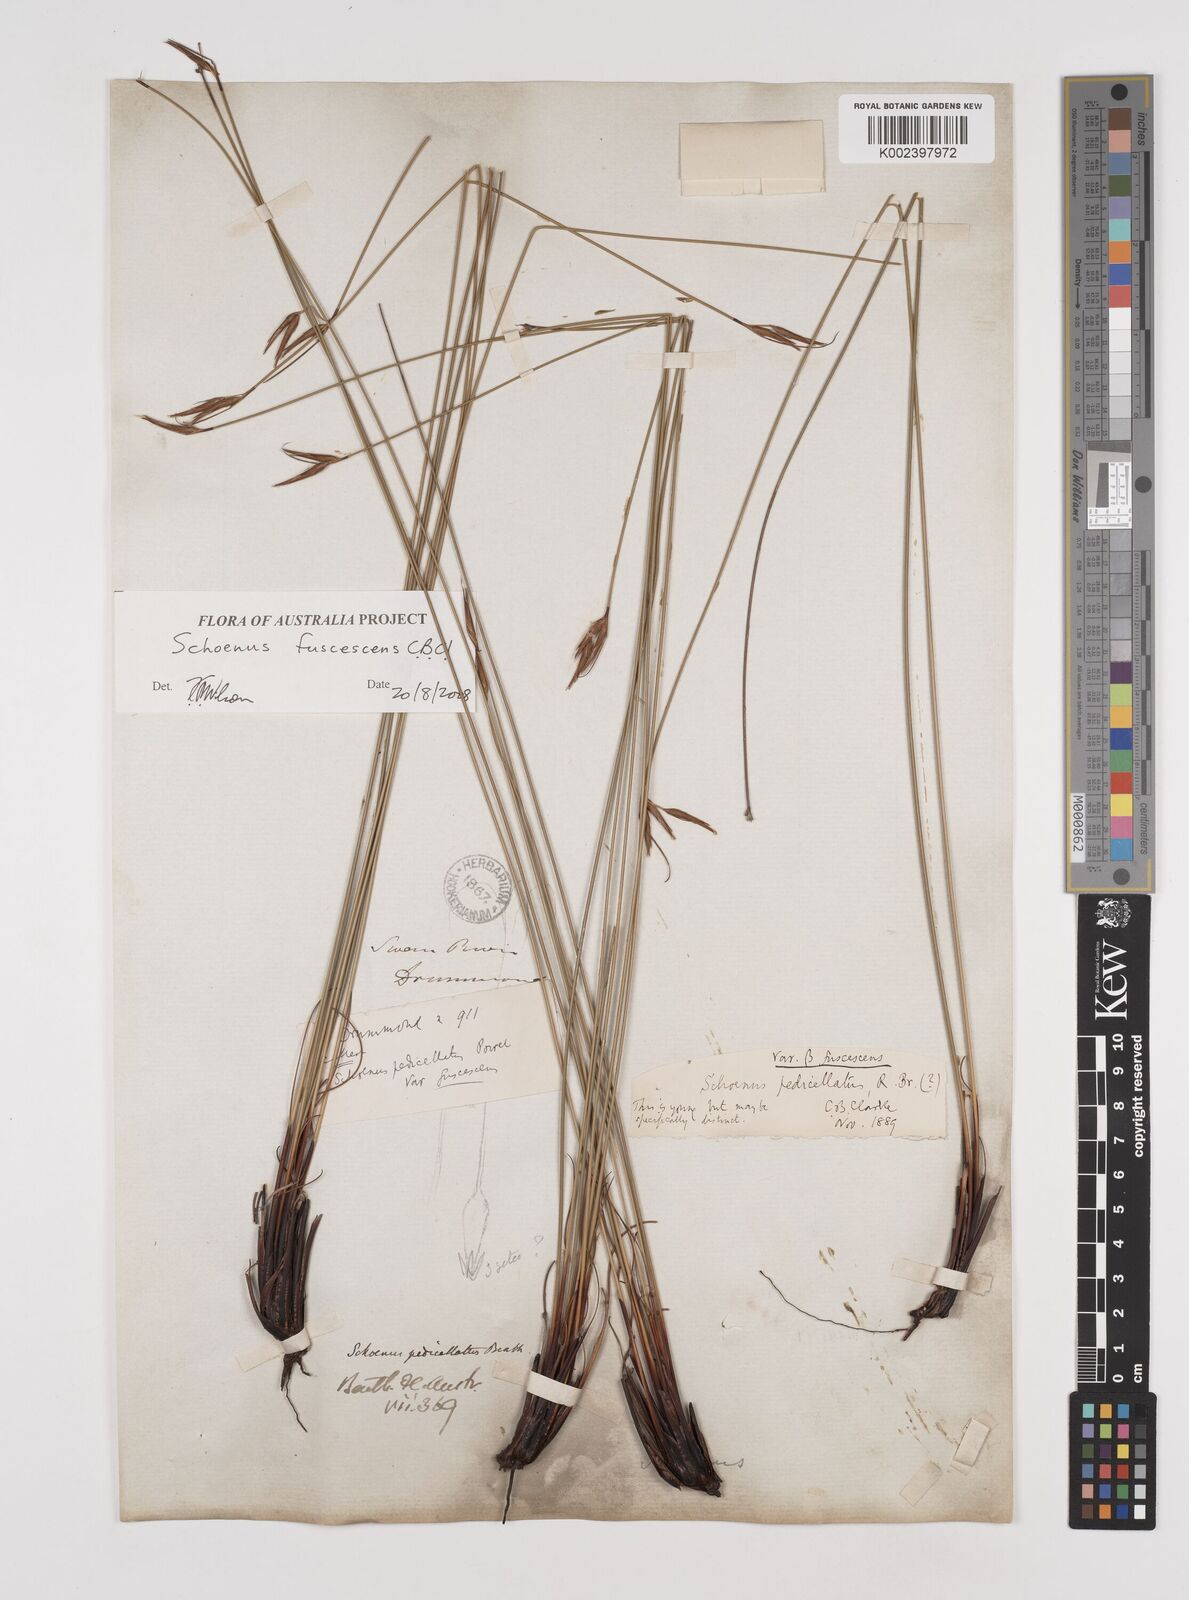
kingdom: Plantae
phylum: Tracheophyta
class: Liliopsida
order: Poales
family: Cyperaceae
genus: Schoenus
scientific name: Schoenus brevisetis
